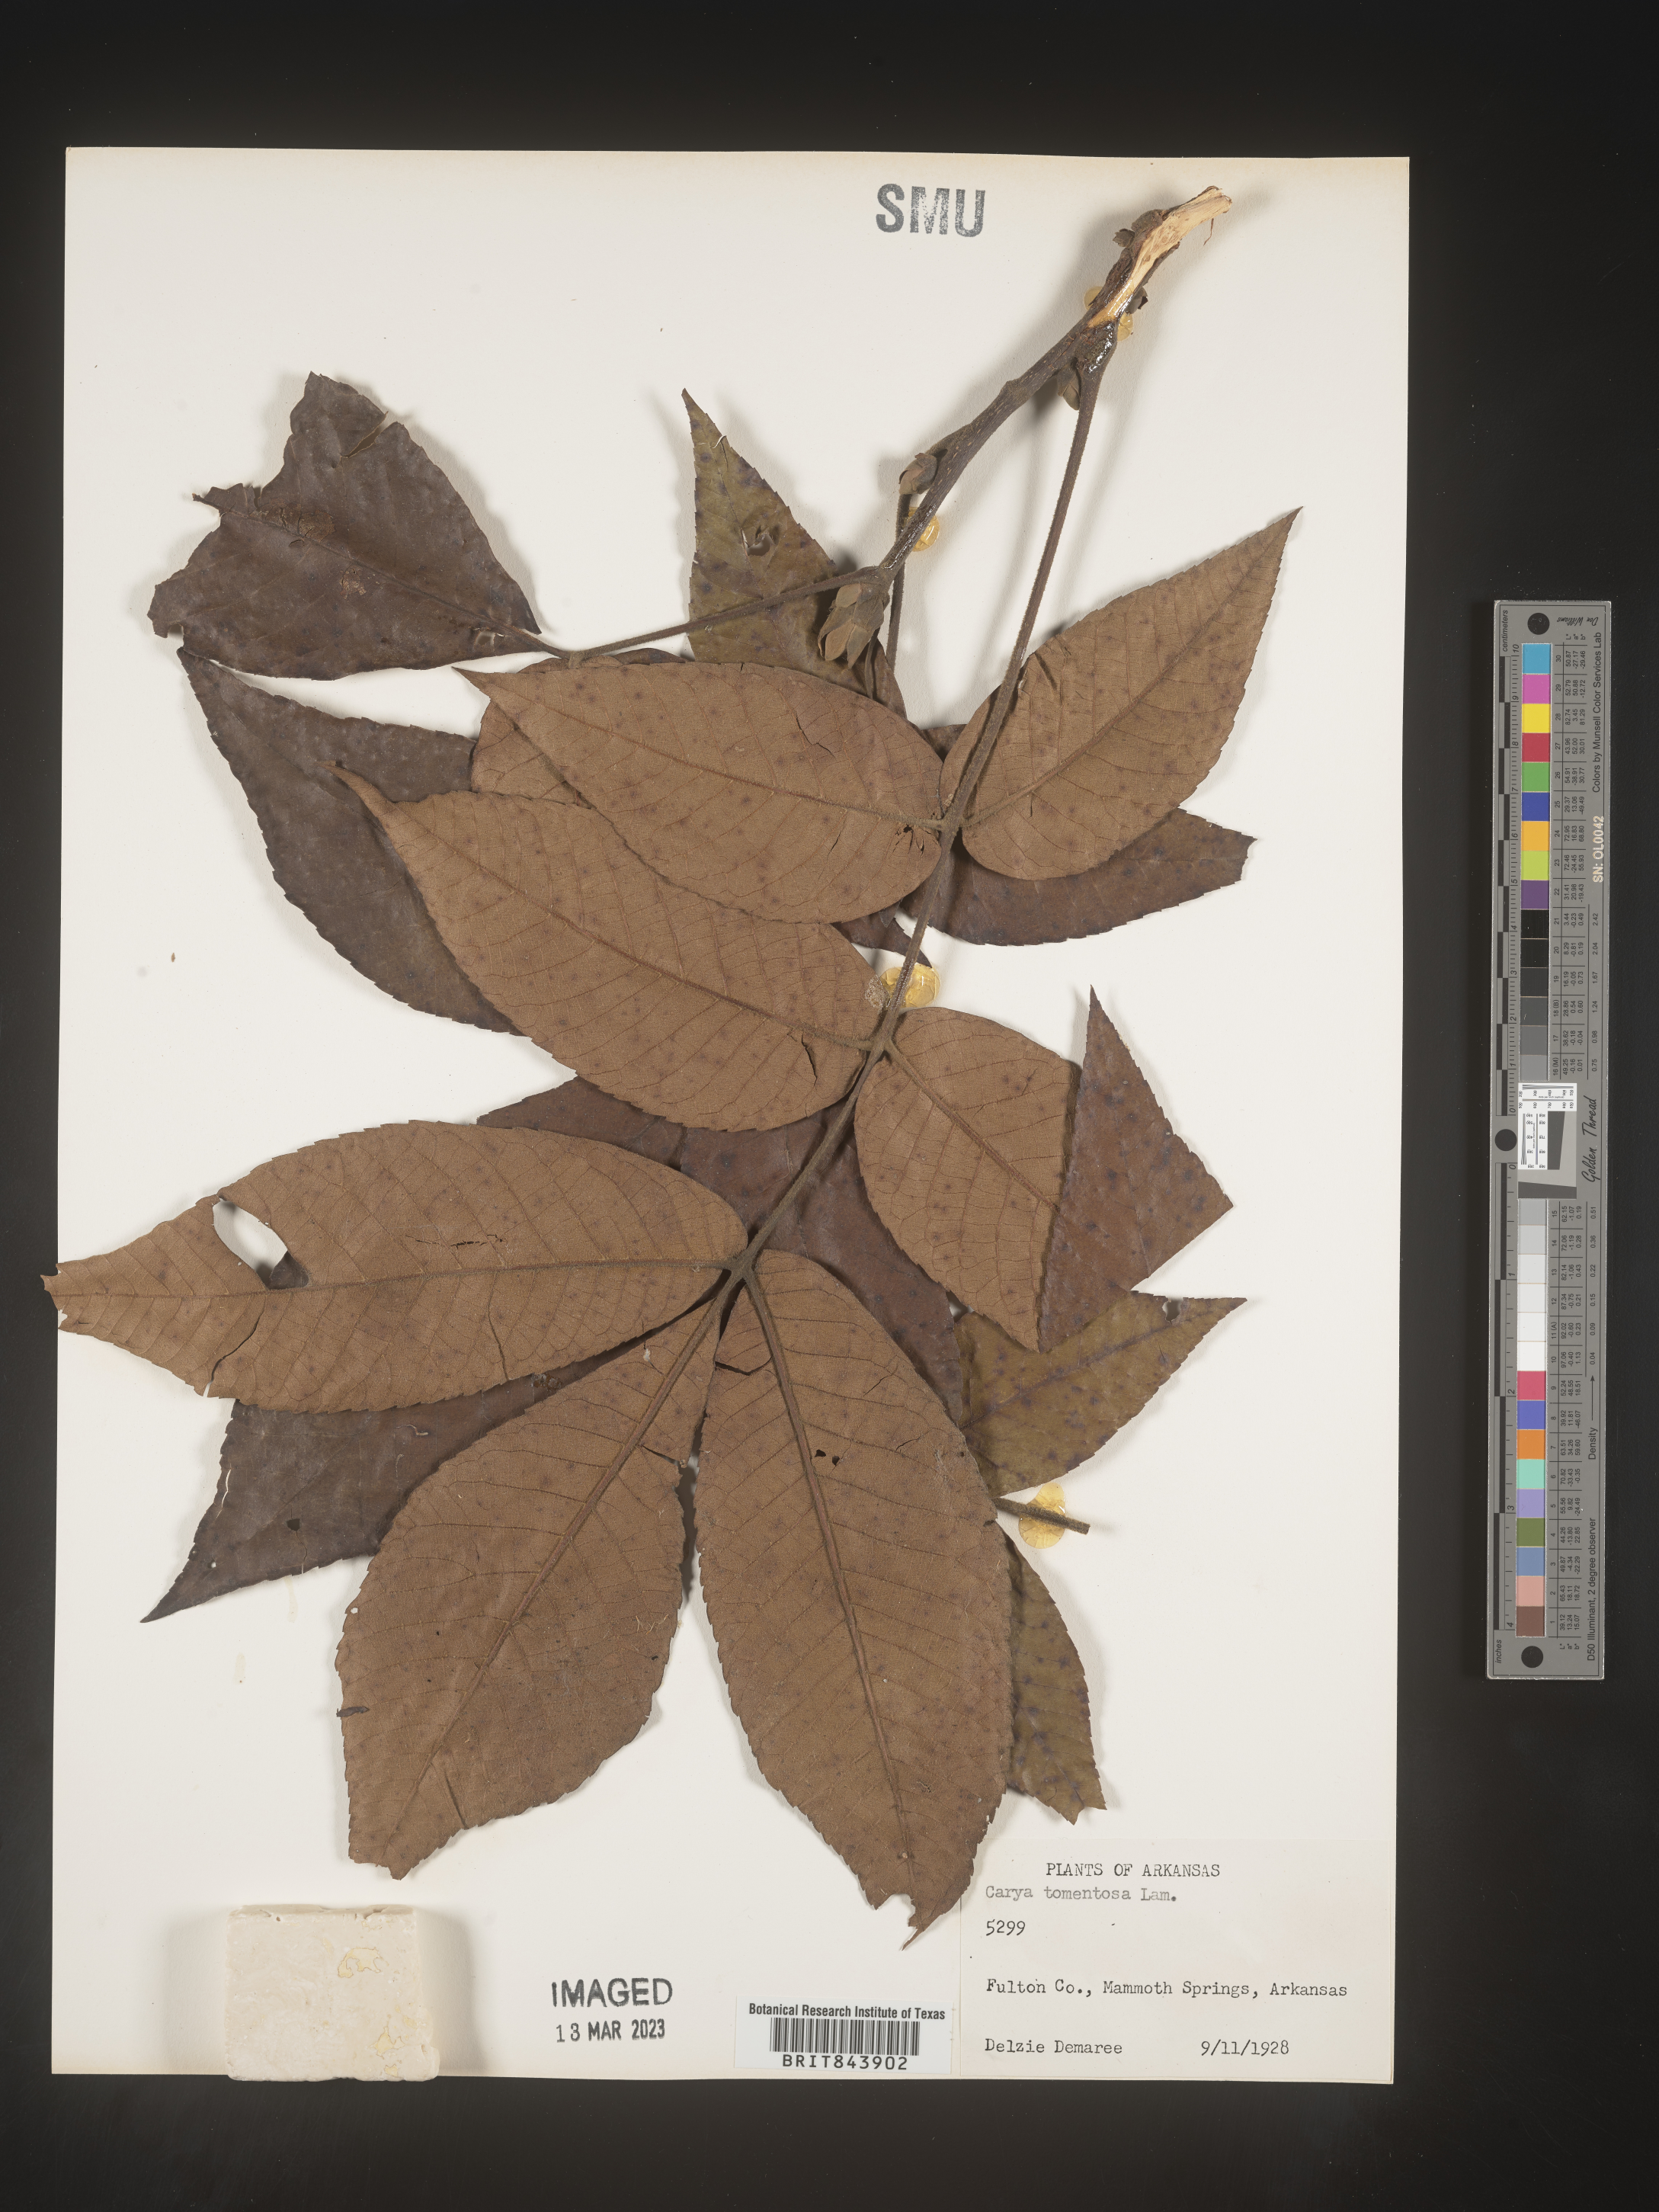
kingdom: Plantae
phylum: Tracheophyta
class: Magnoliopsida
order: Fagales
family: Juglandaceae
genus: Carya
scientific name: Carya alba
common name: Mockernut hickory
